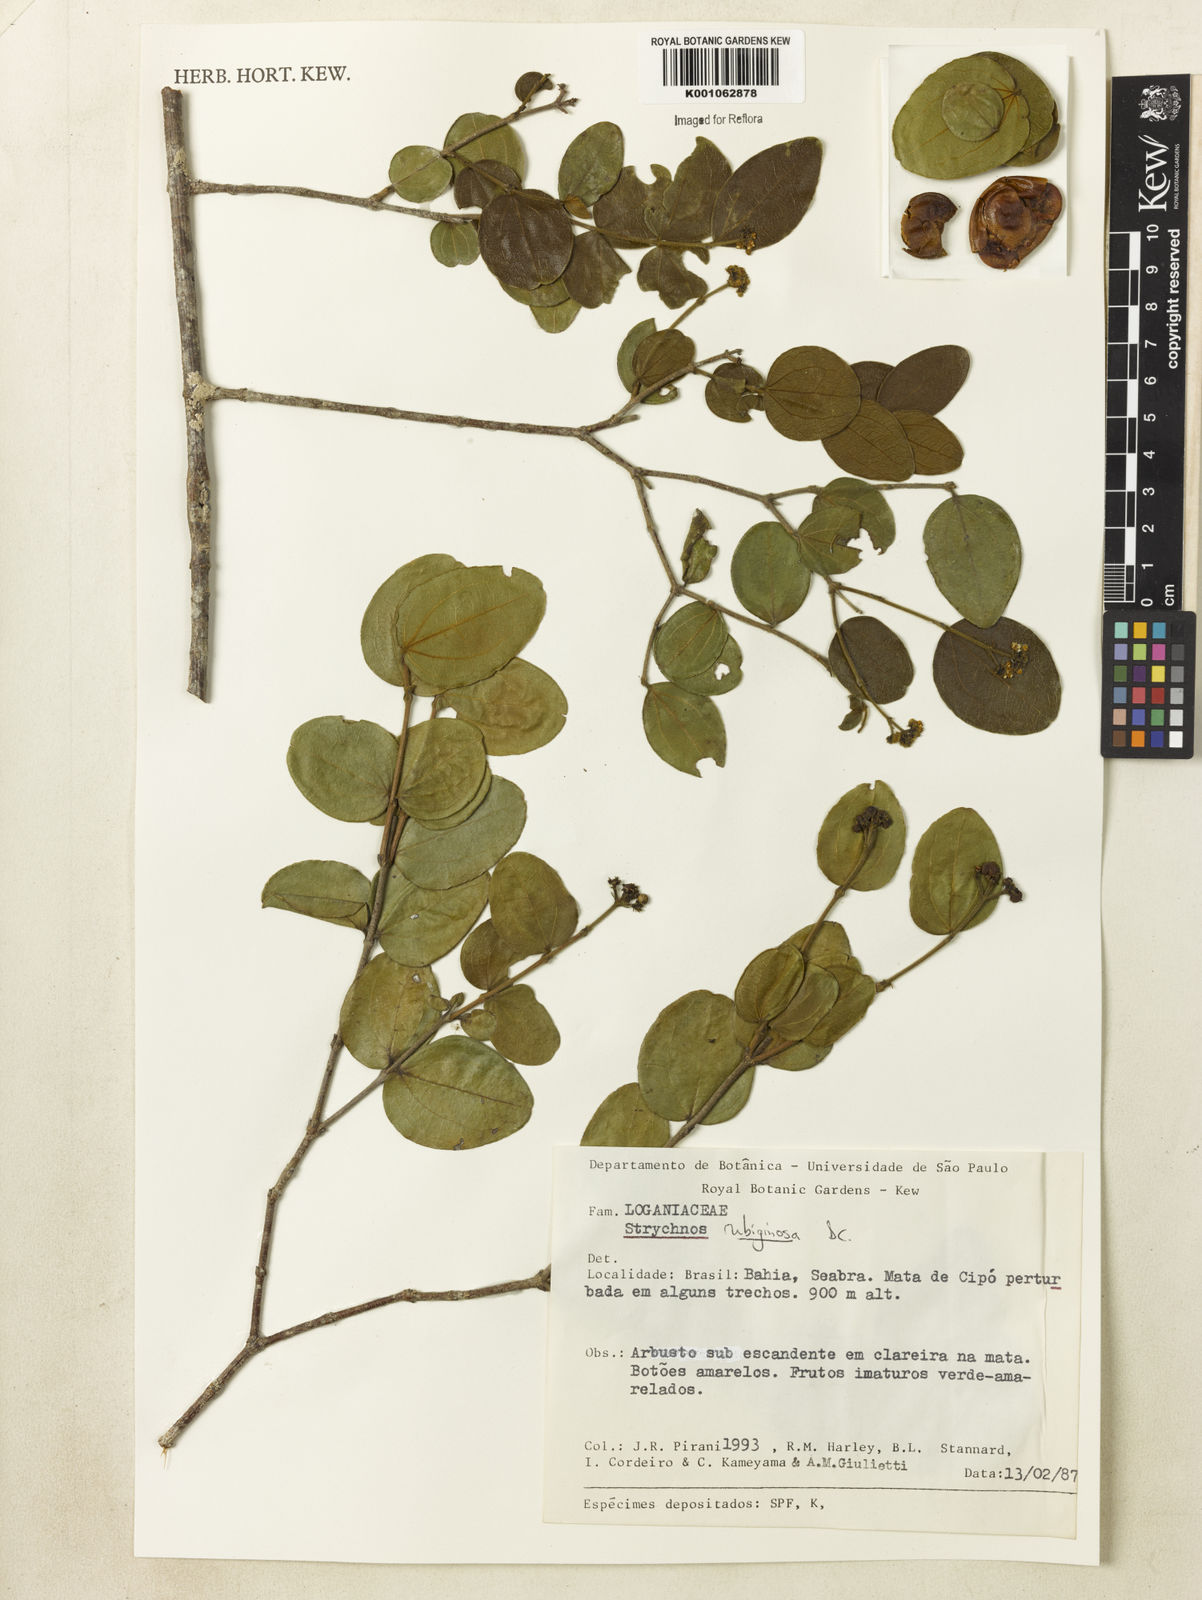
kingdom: Plantae
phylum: Tracheophyta
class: Magnoliopsida
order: Gentianales
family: Loganiaceae
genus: Strychnos
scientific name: Strychnos rubiginosa
